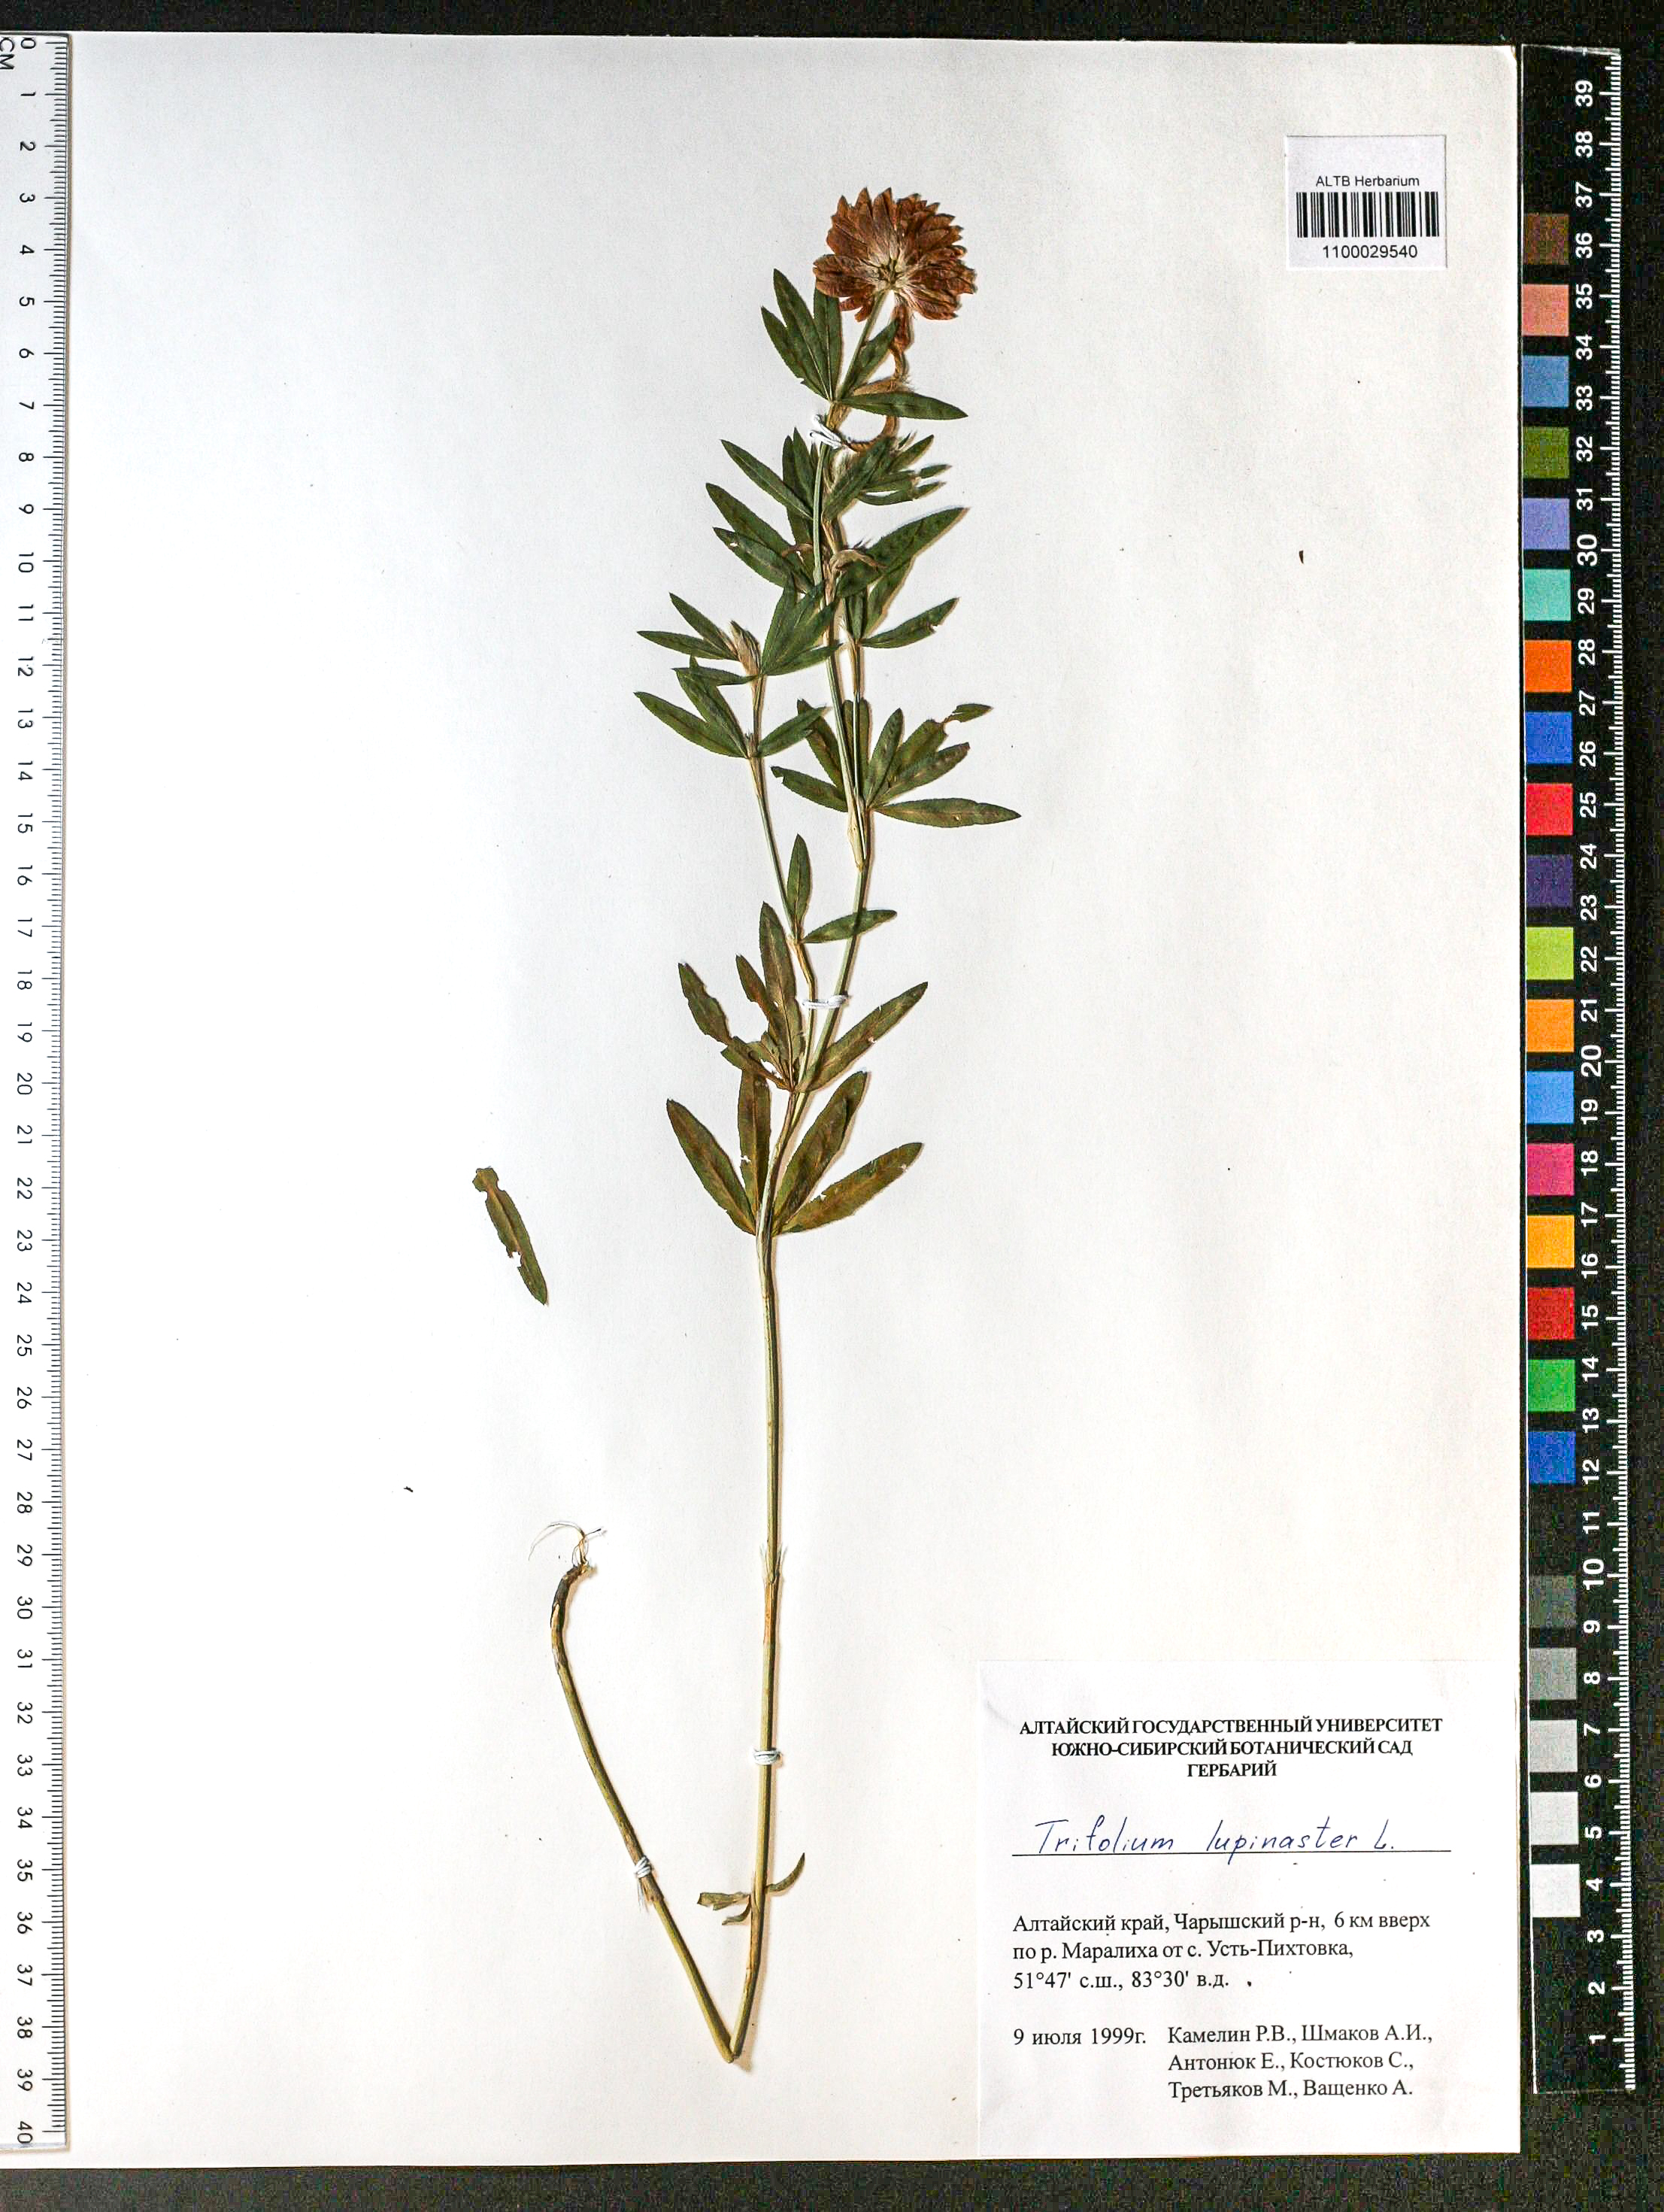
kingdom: Plantae
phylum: Tracheophyta
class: Magnoliopsida
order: Fabales
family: Fabaceae
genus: Trifolium
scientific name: Trifolium lupinaster
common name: Lupine clover
